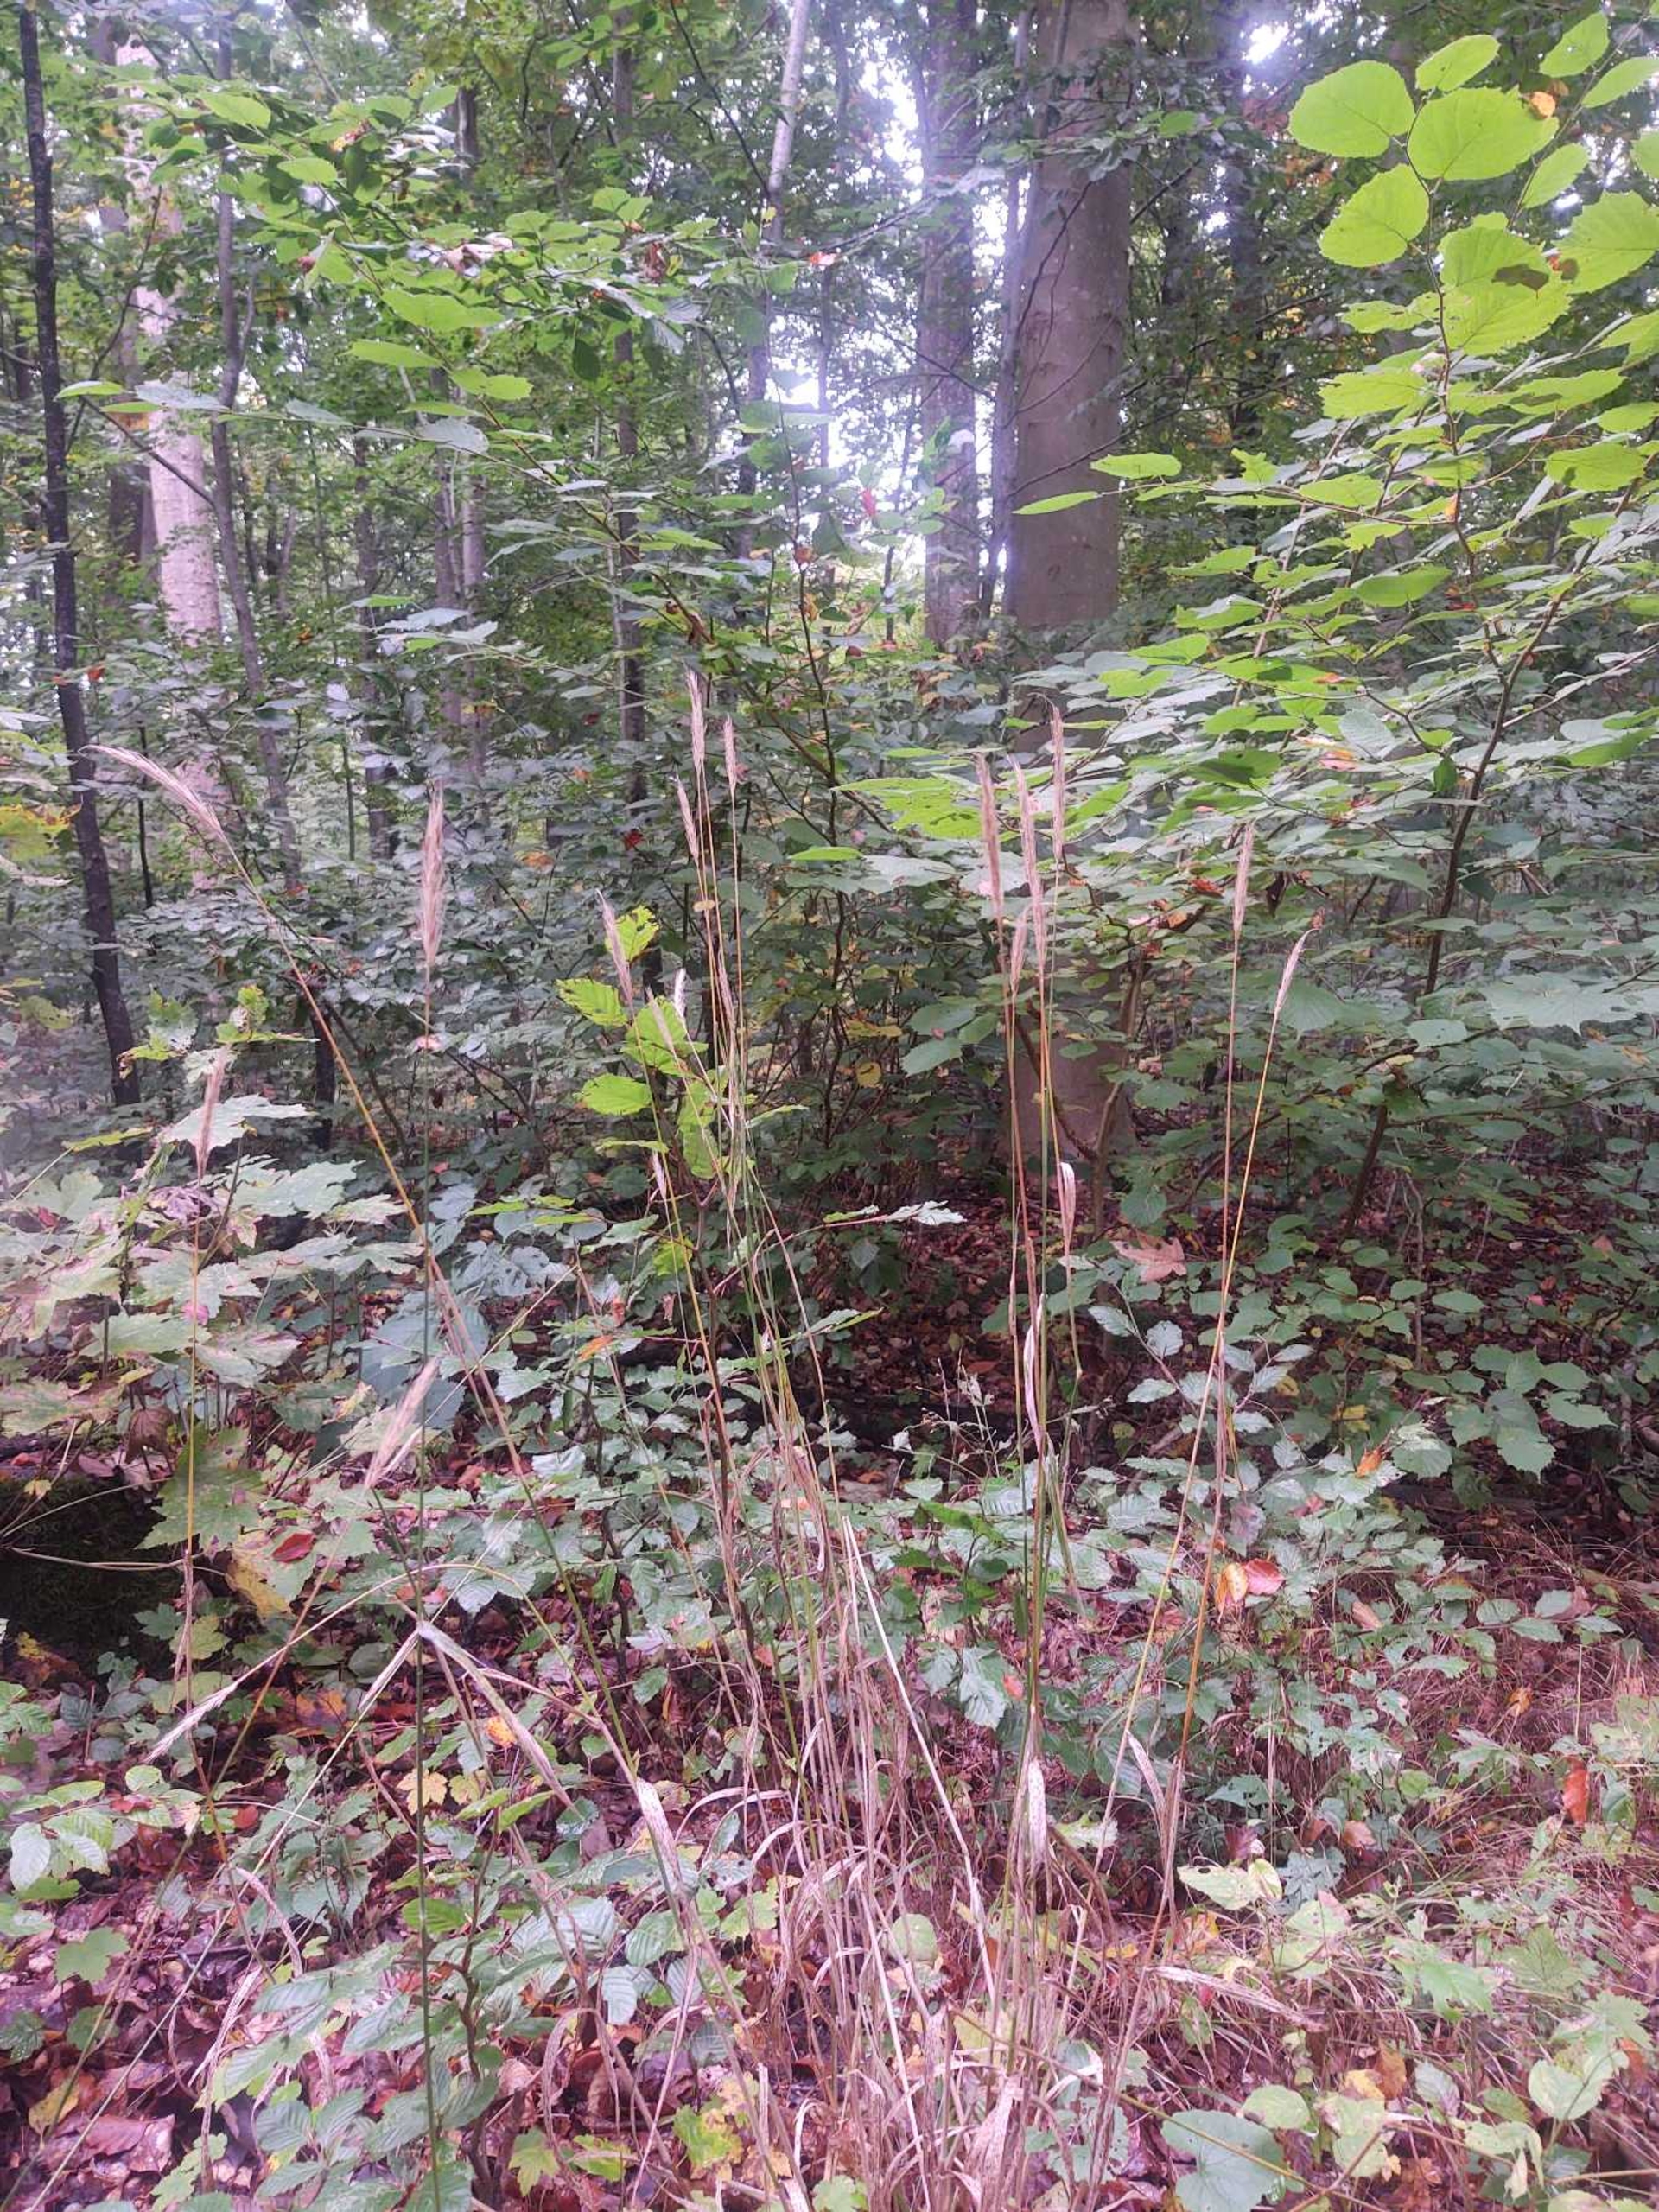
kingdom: Plantae
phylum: Tracheophyta
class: Liliopsida
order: Poales
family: Poaceae
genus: Hordelymus
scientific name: Hordelymus europaeus
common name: Skovbyg
